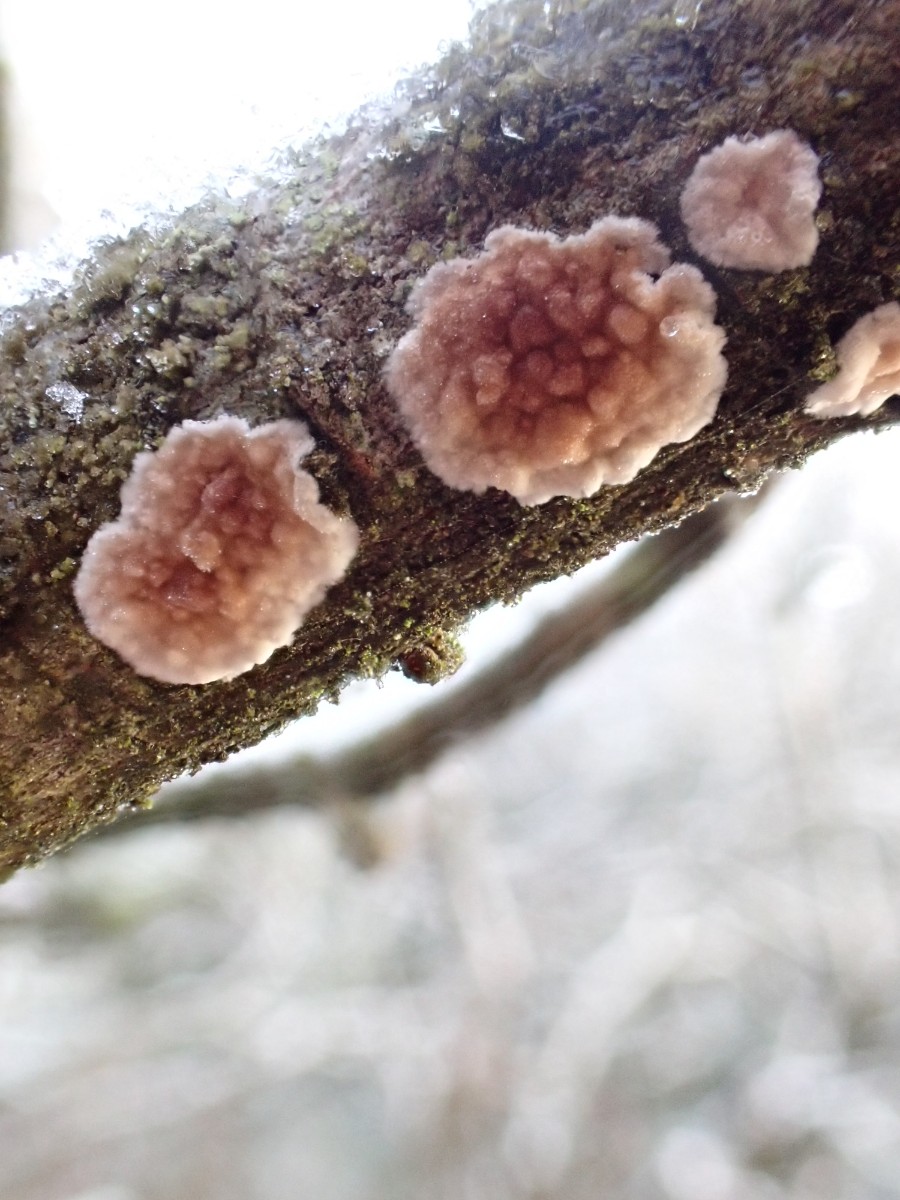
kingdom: Fungi
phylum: Basidiomycota
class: Agaricomycetes
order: Agaricales
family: Physalacriaceae
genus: Cylindrobasidium
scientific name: Cylindrobasidium evolvens
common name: sprækkehinde
